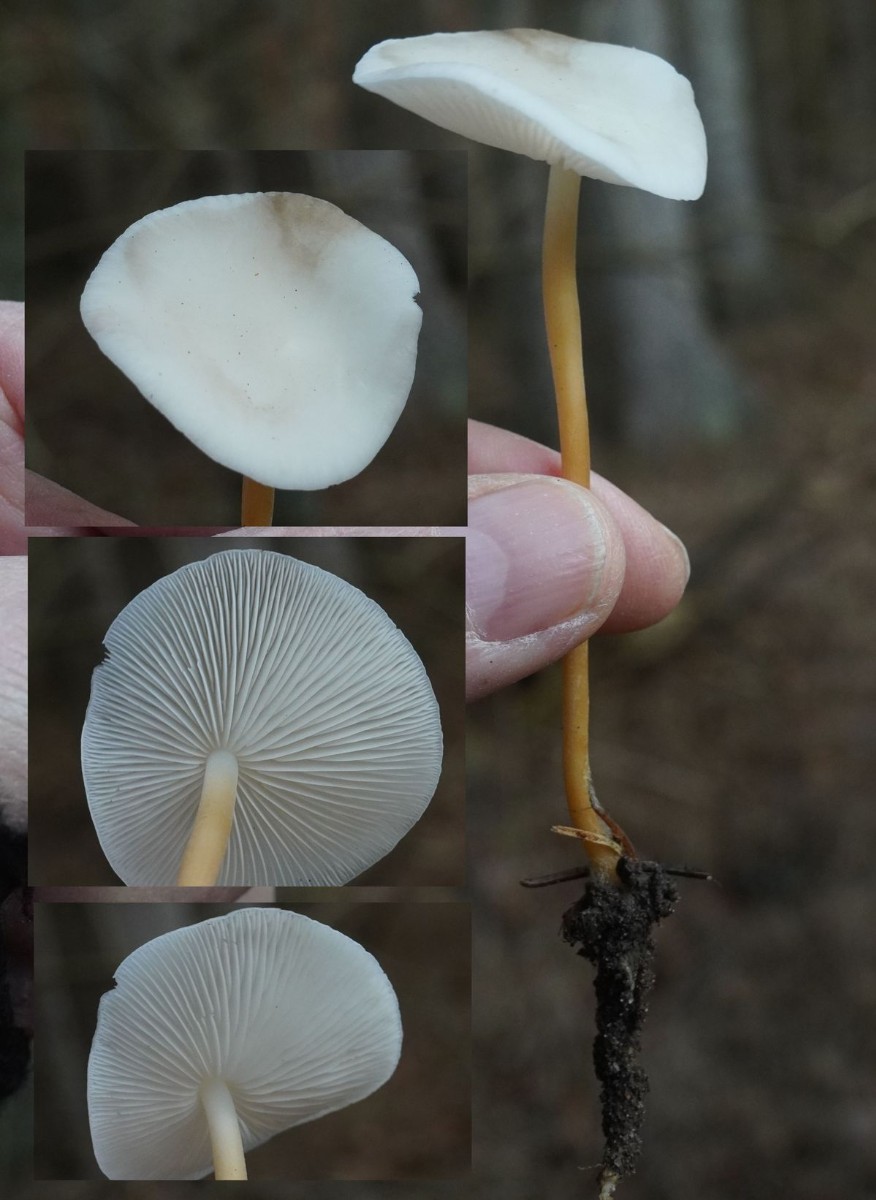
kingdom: Fungi
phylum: Basidiomycota
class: Agaricomycetes
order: Agaricales
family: Physalacriaceae
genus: Strobilurus
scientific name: Strobilurus
